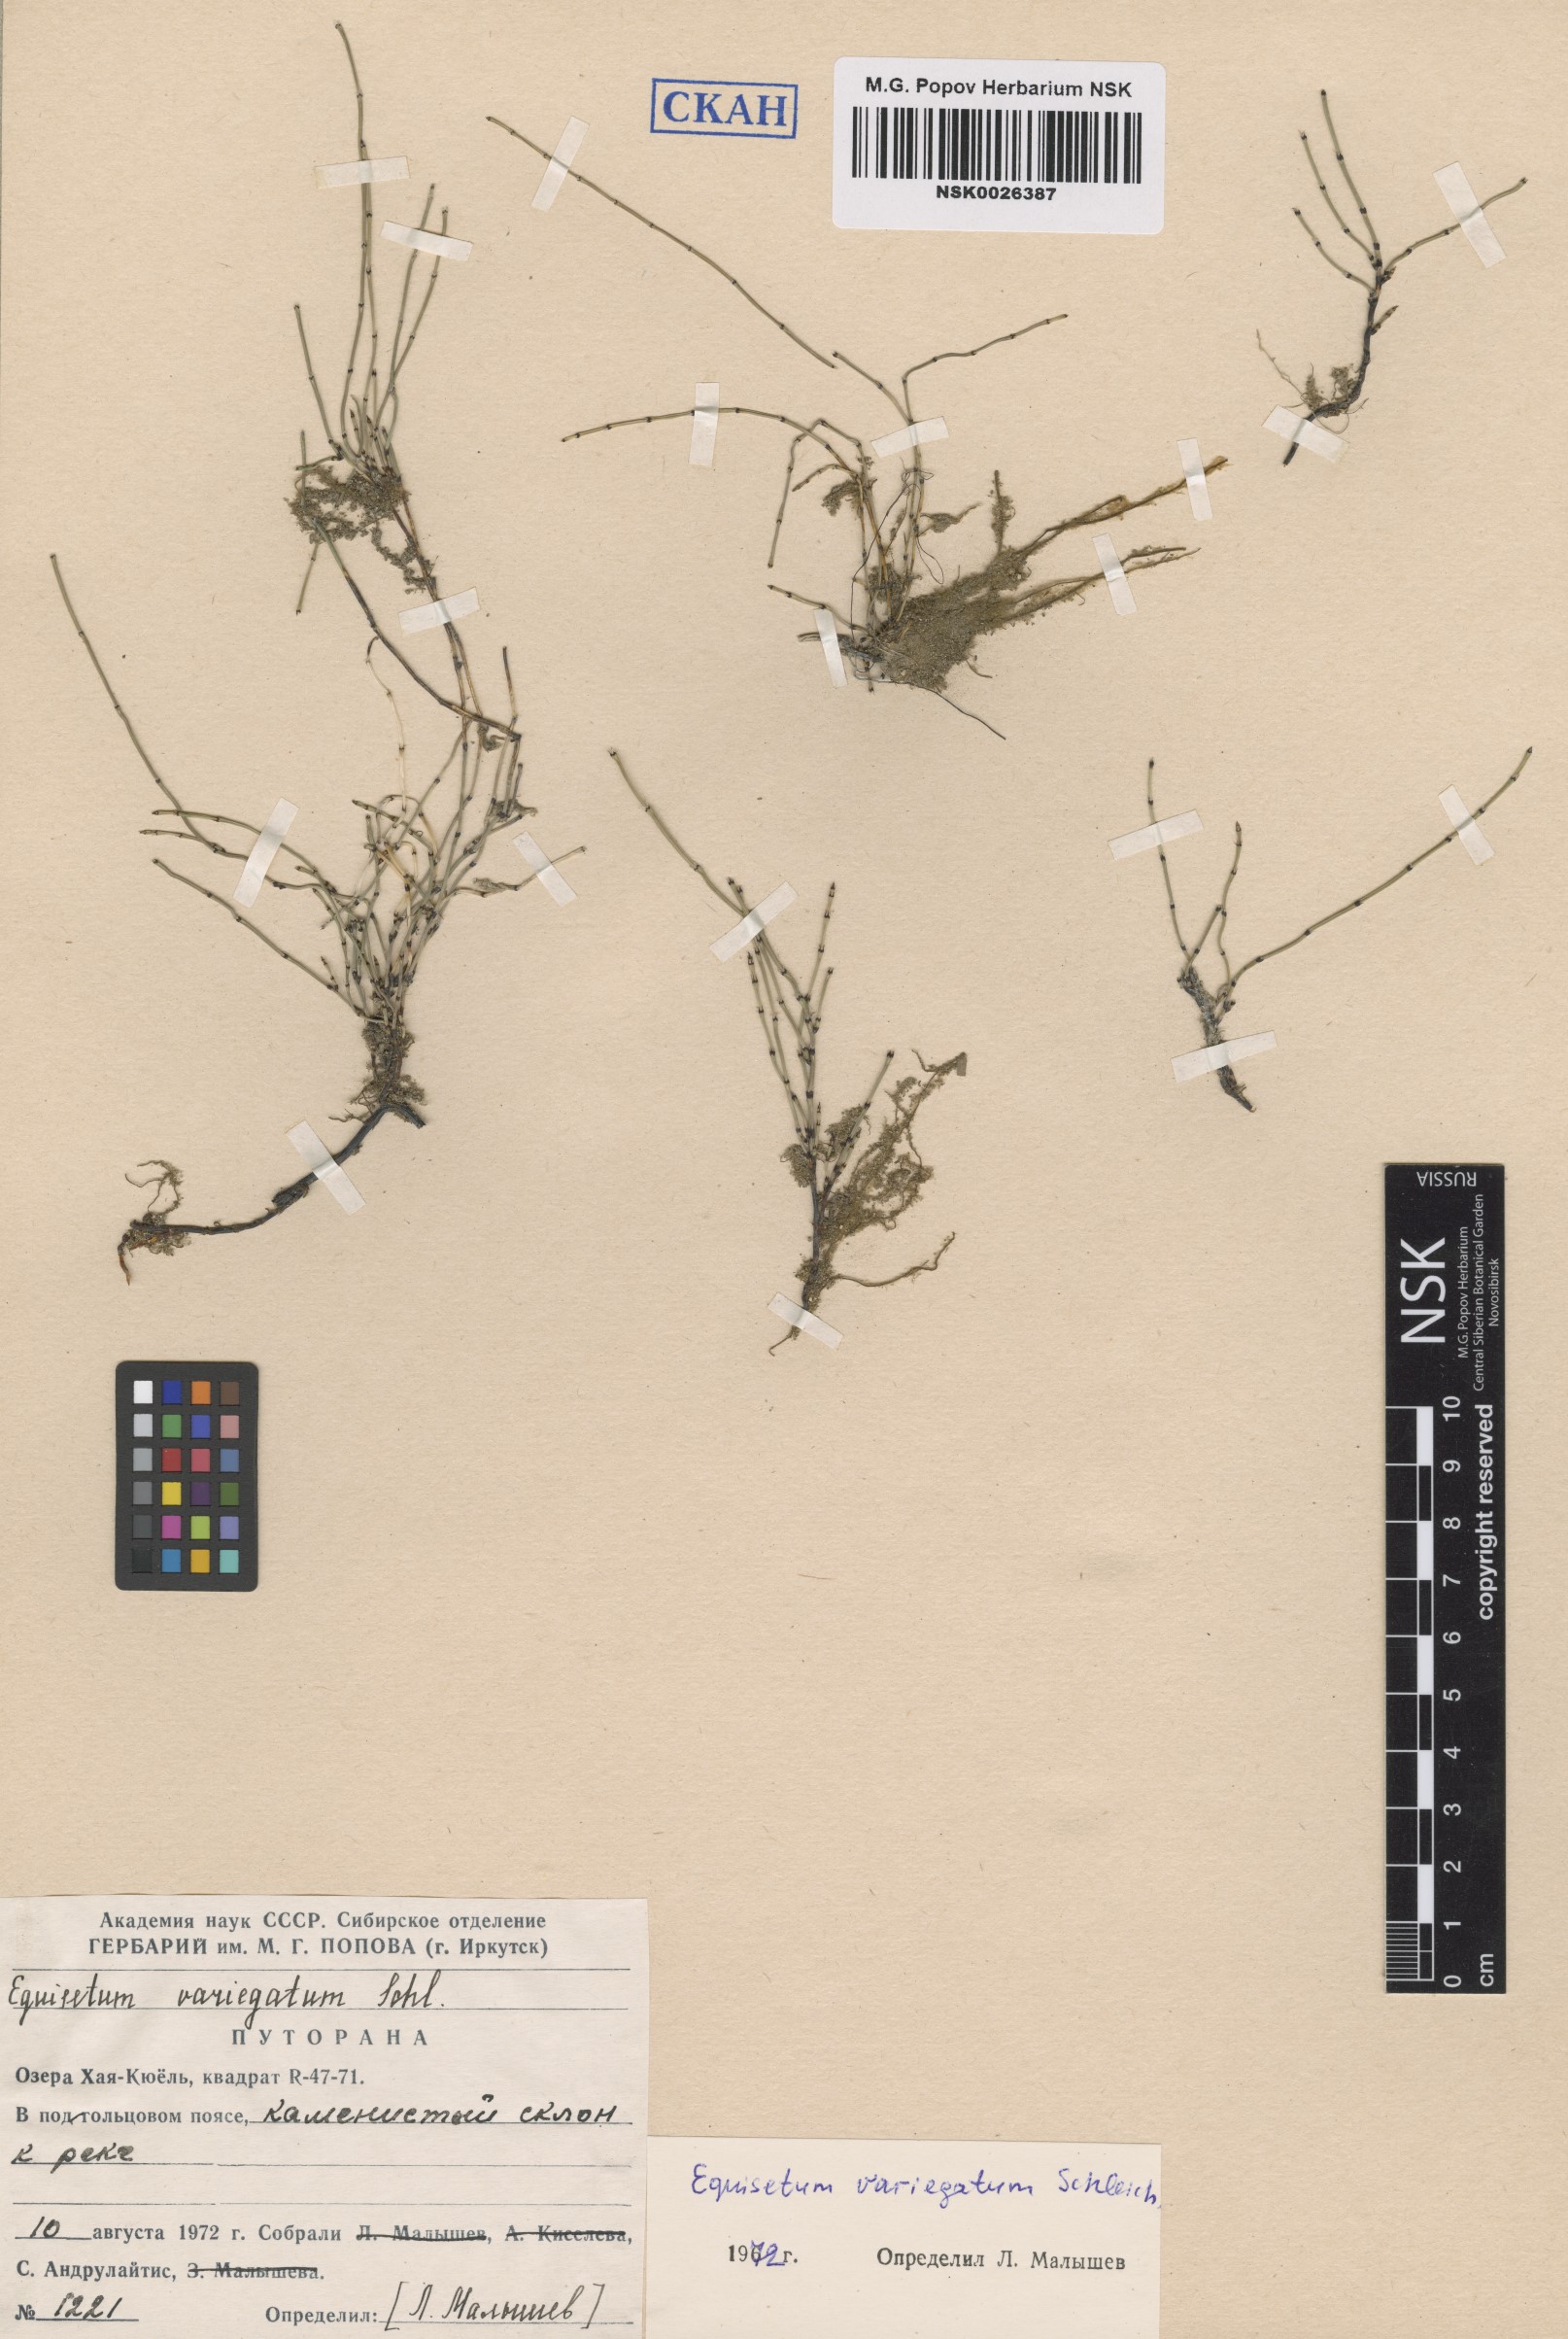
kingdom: Plantae
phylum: Tracheophyta
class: Polypodiopsida
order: Equisetales
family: Equisetaceae
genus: Equisetum
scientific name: Equisetum variegatum
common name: Variegated horsetail
